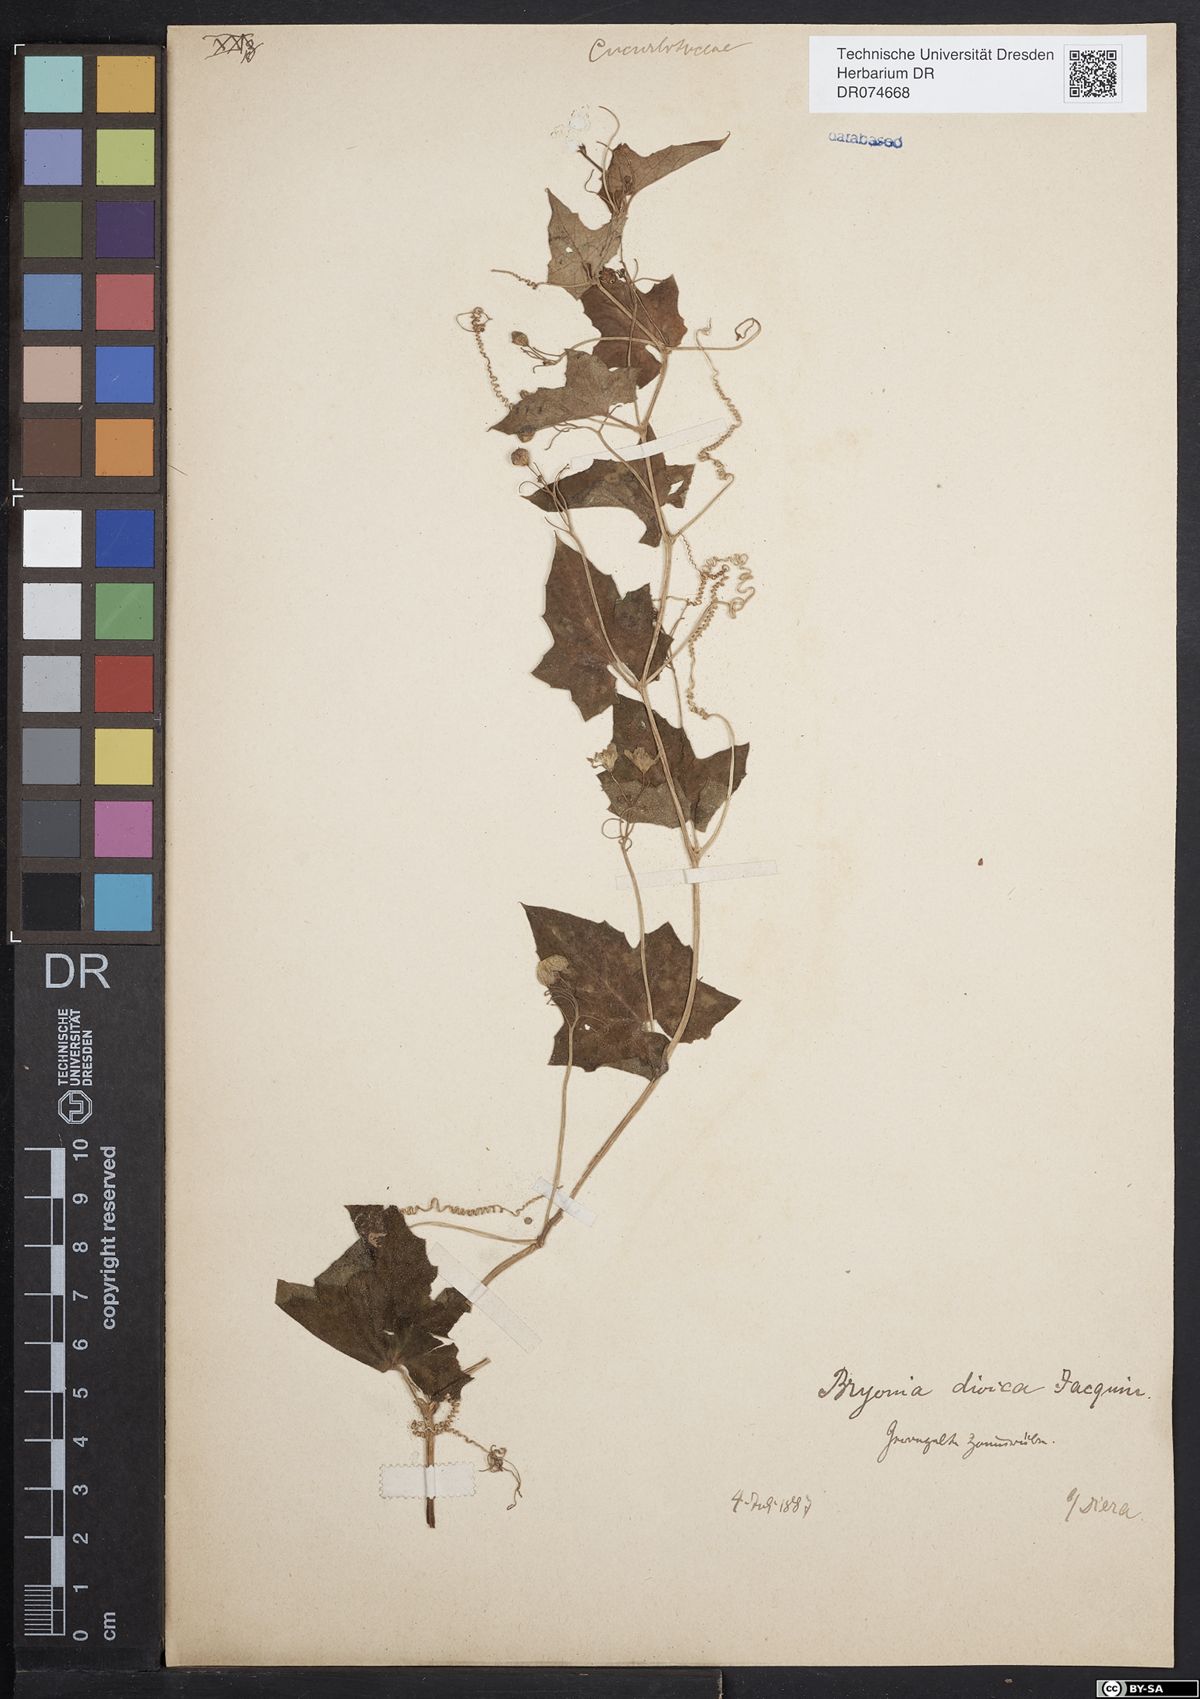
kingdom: Plantae
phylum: Tracheophyta
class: Magnoliopsida
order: Cucurbitales
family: Cucurbitaceae
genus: Bryonia
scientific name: Bryonia dioica
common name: White bryony
